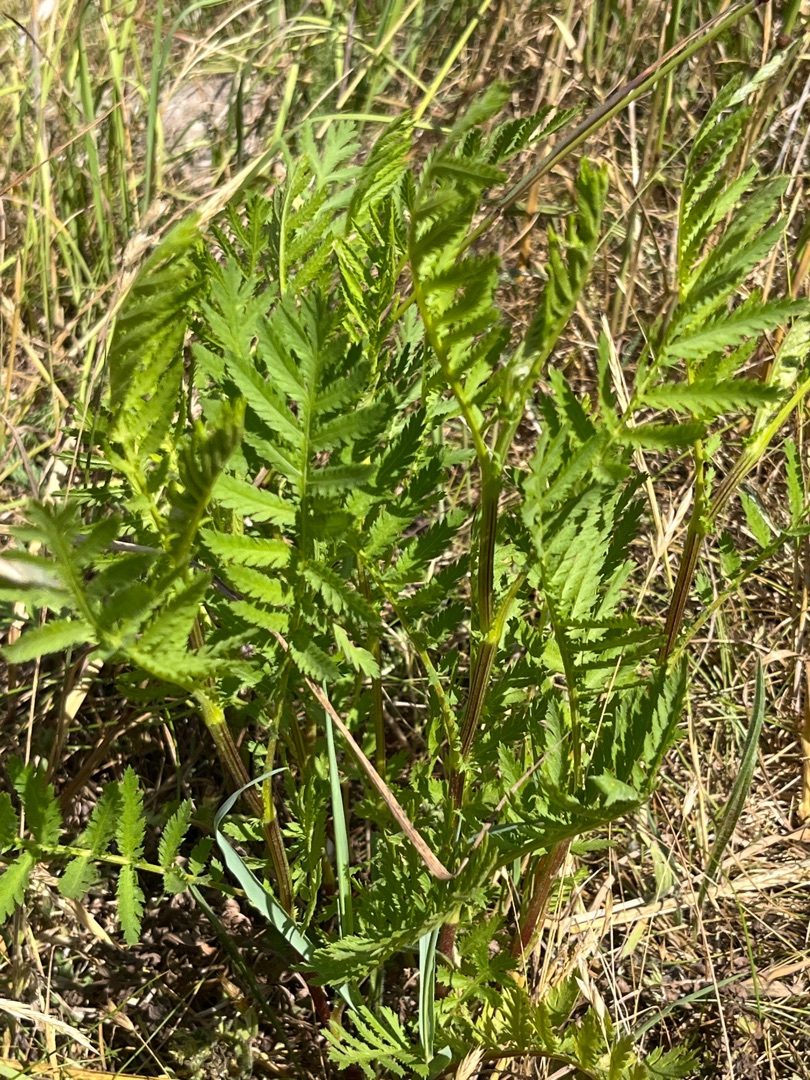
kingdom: Plantae
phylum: Tracheophyta
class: Magnoliopsida
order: Asterales
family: Asteraceae
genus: Tanacetum
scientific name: Tanacetum vulgare
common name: Rejnfan
